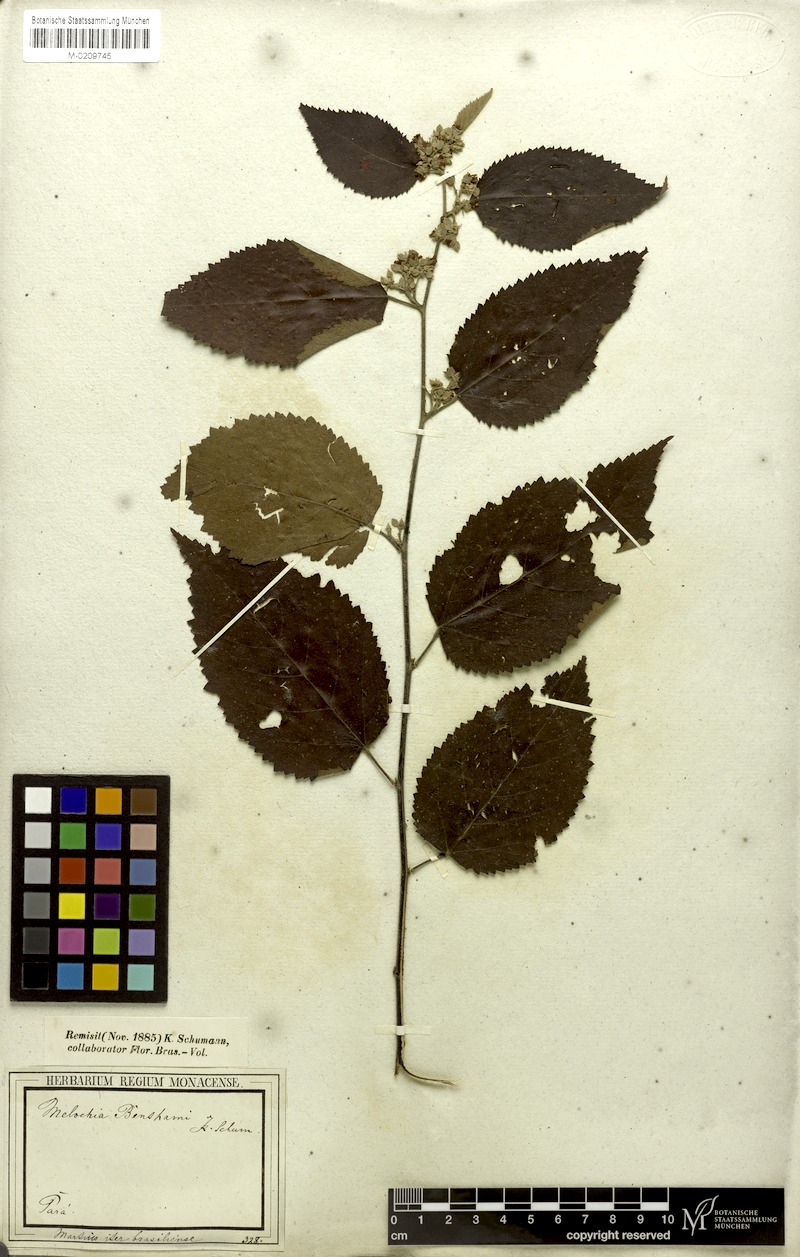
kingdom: Plantae
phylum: Tracheophyta
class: Magnoliopsida
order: Malvales
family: Malvaceae
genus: Melochia
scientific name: Melochia ulmifolia
